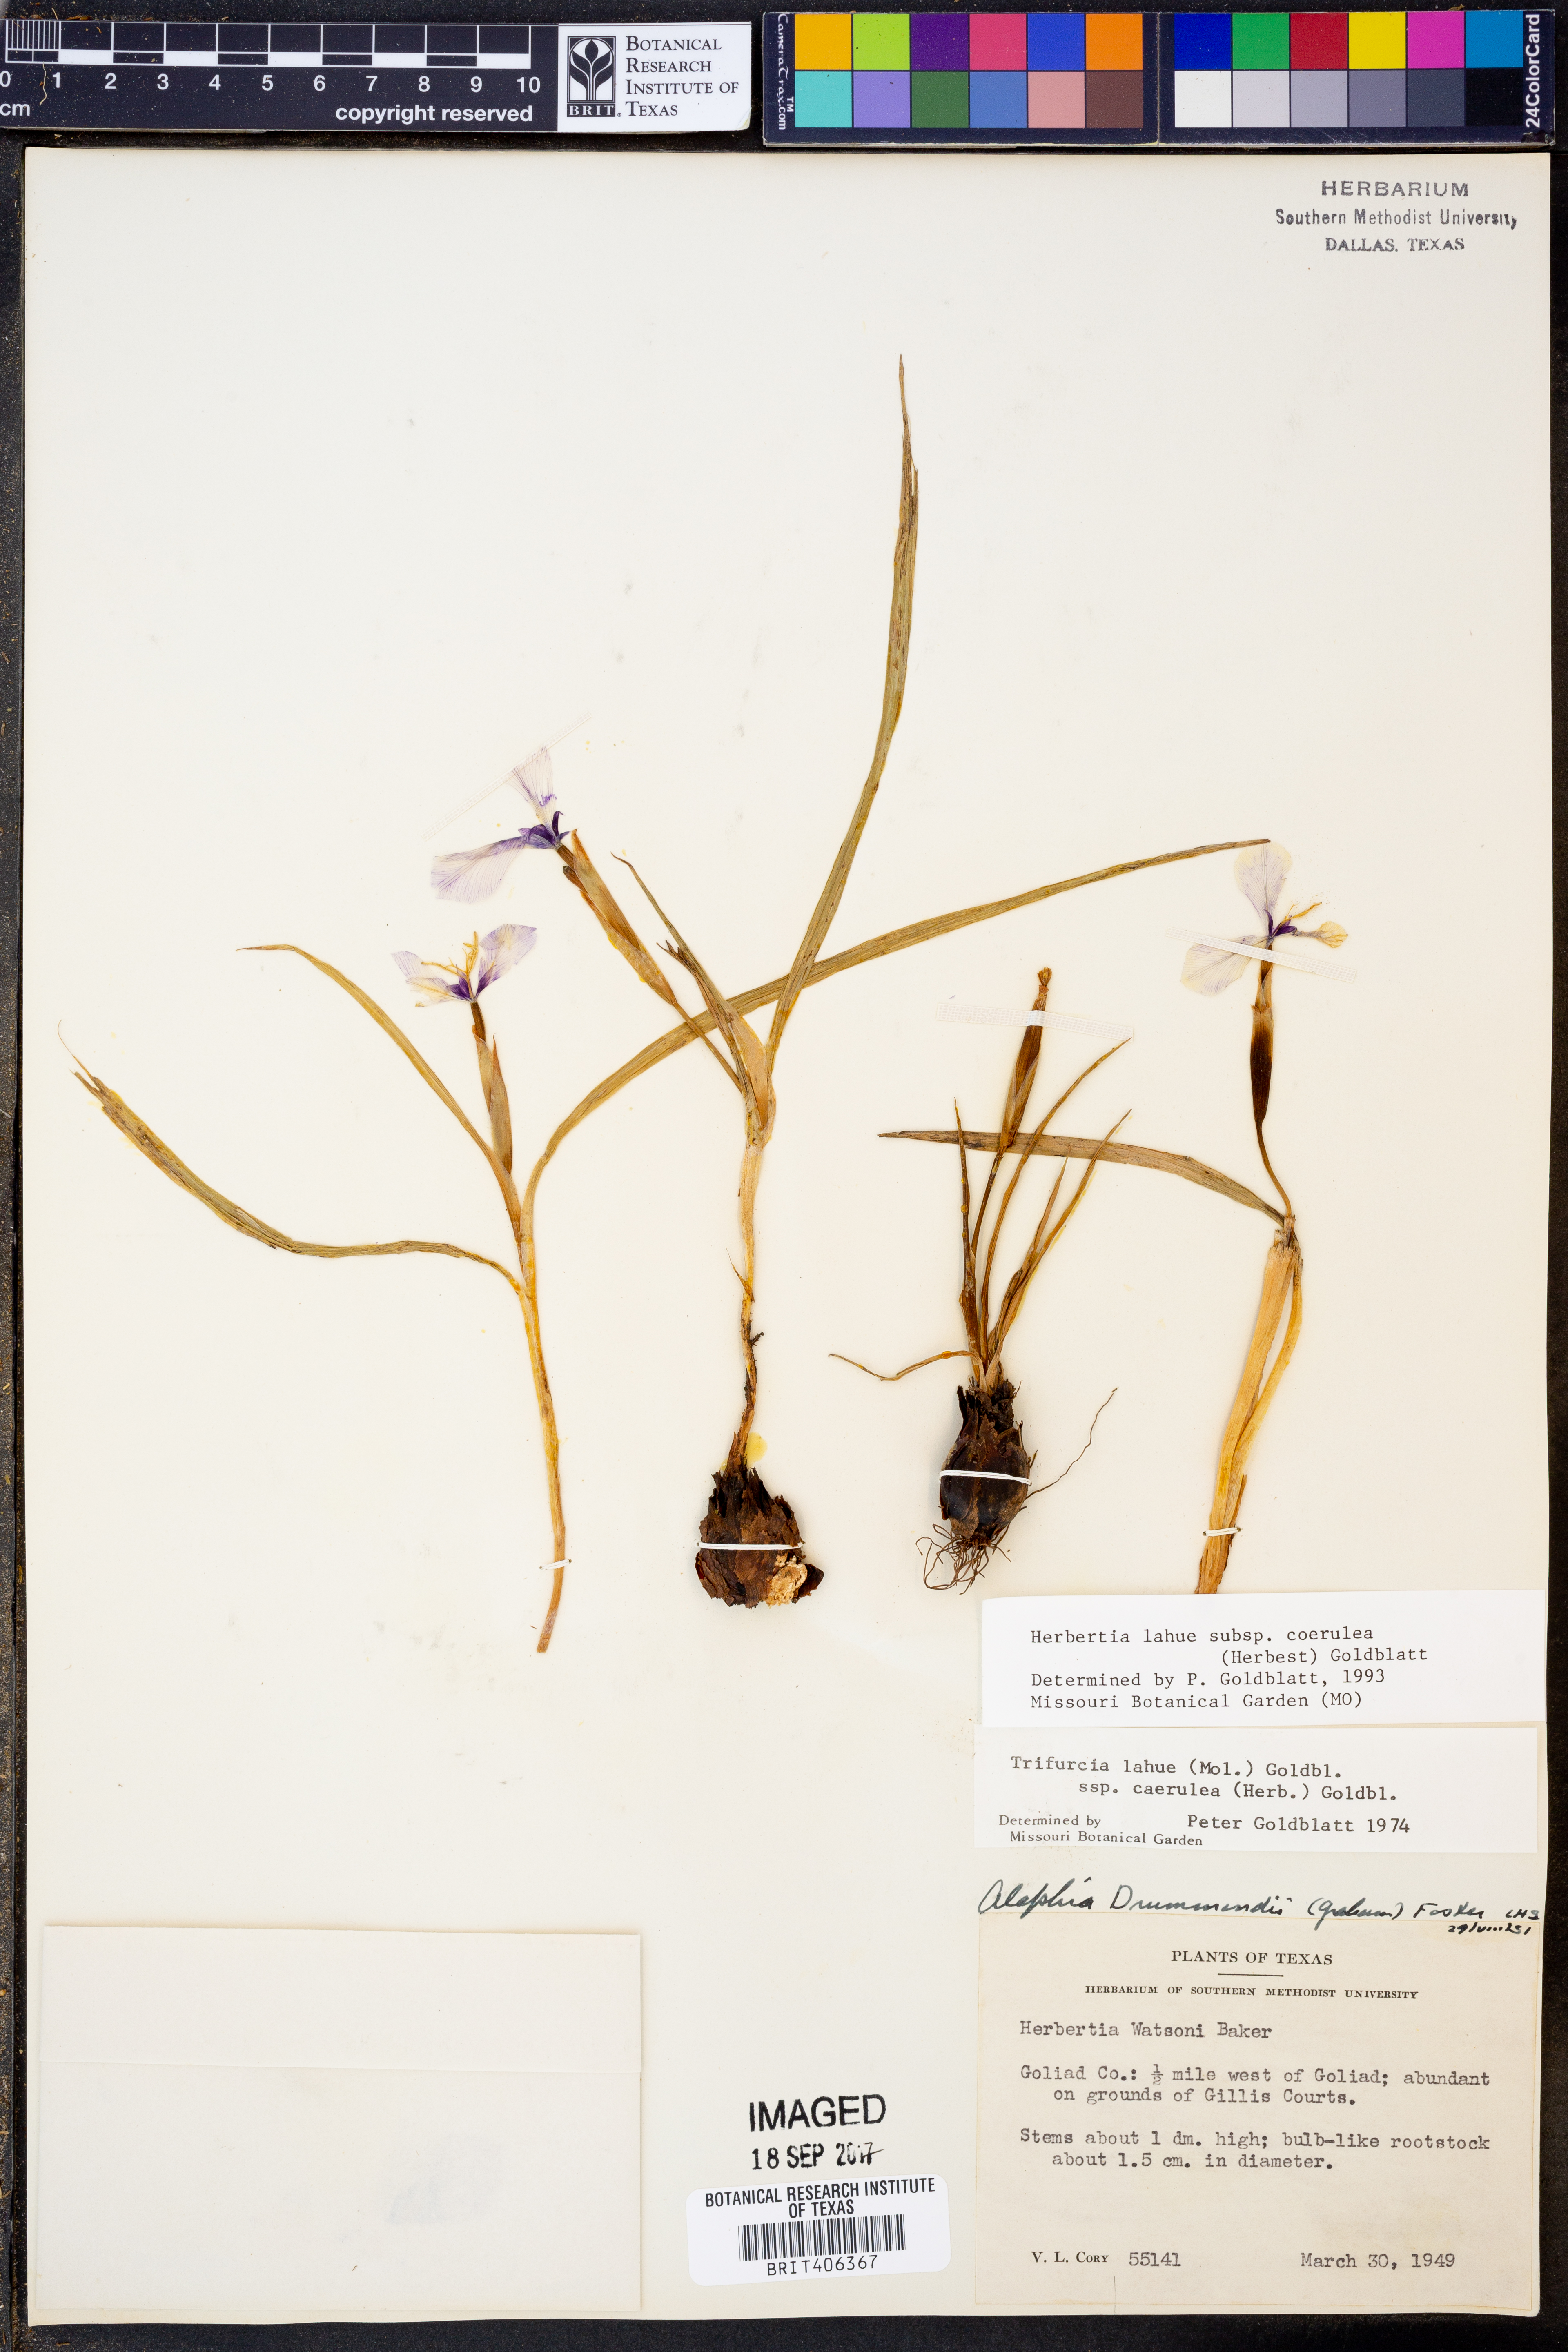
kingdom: Plantae
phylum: Tracheophyta
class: Liliopsida
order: Asparagales
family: Iridaceae
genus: Herbertia
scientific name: Herbertia lahue
